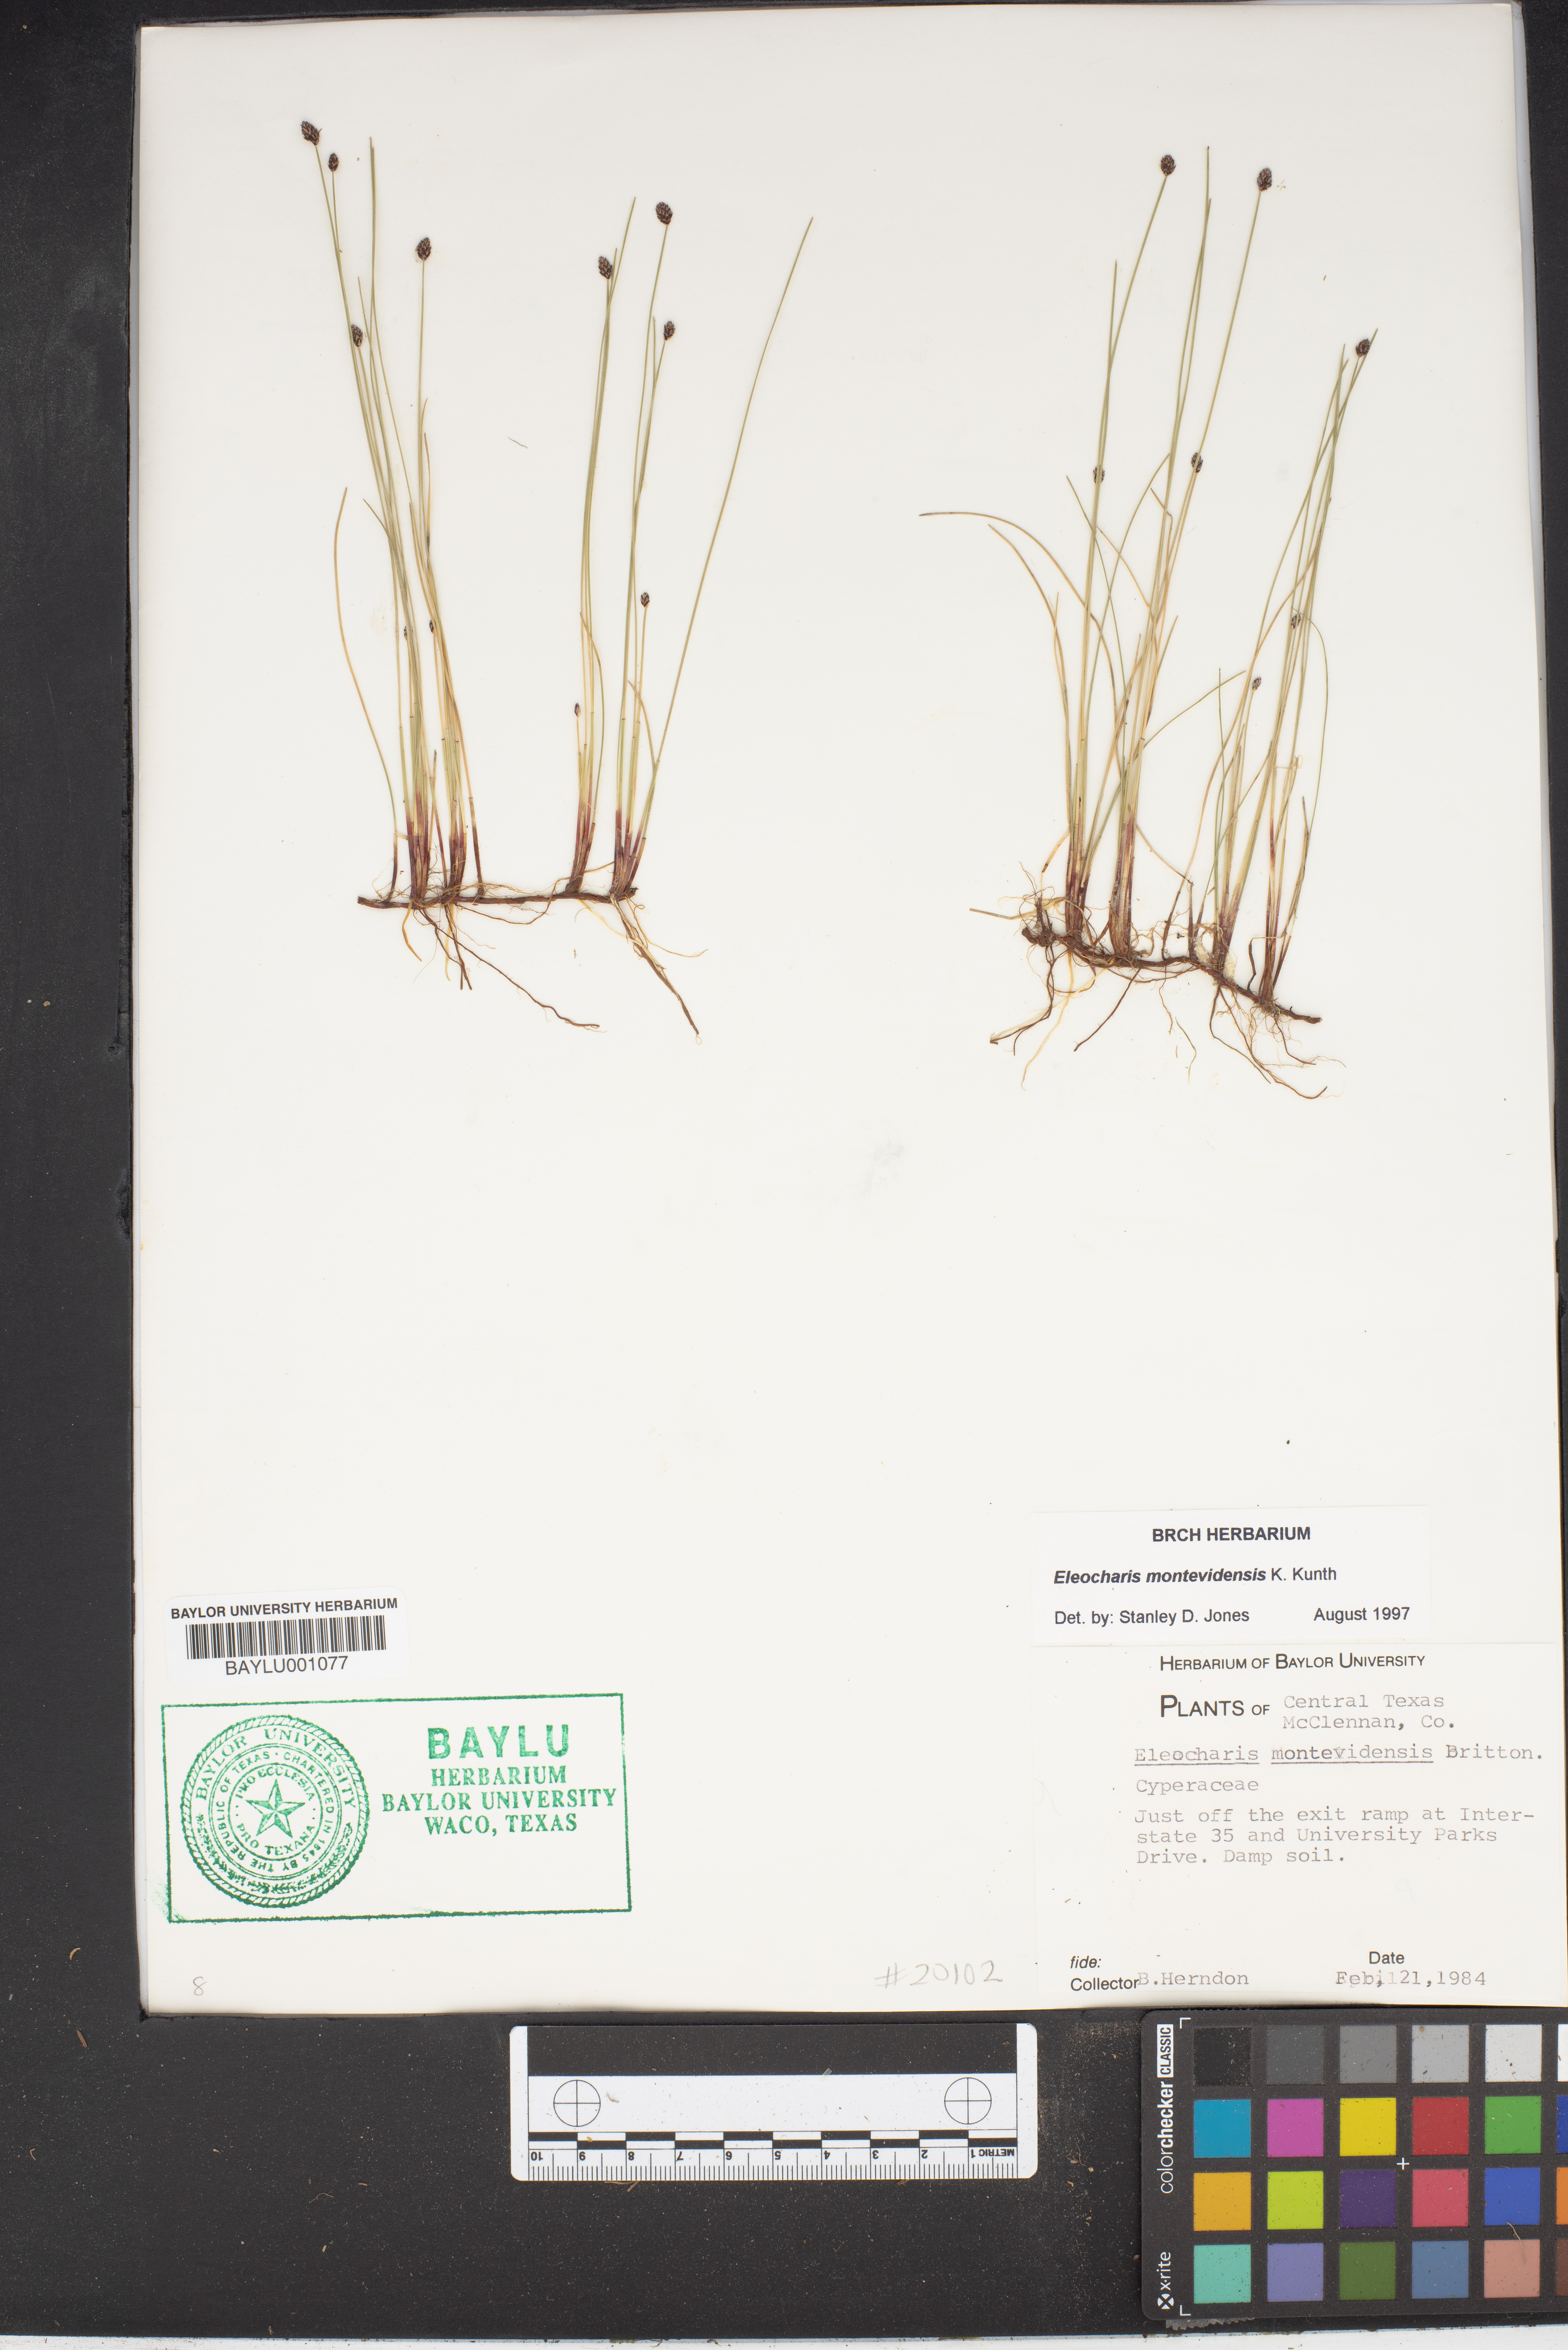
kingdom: Plantae
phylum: Tracheophyta
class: Liliopsida
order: Poales
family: Cyperaceae
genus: Eleocharis
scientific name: Eleocharis montevidensis
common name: Sand spike-rush
